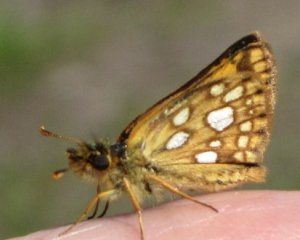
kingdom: Animalia
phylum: Arthropoda
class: Insecta
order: Lepidoptera
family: Hesperiidae
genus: Carterocephalus
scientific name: Carterocephalus palaemon
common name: Chequered Skipper
